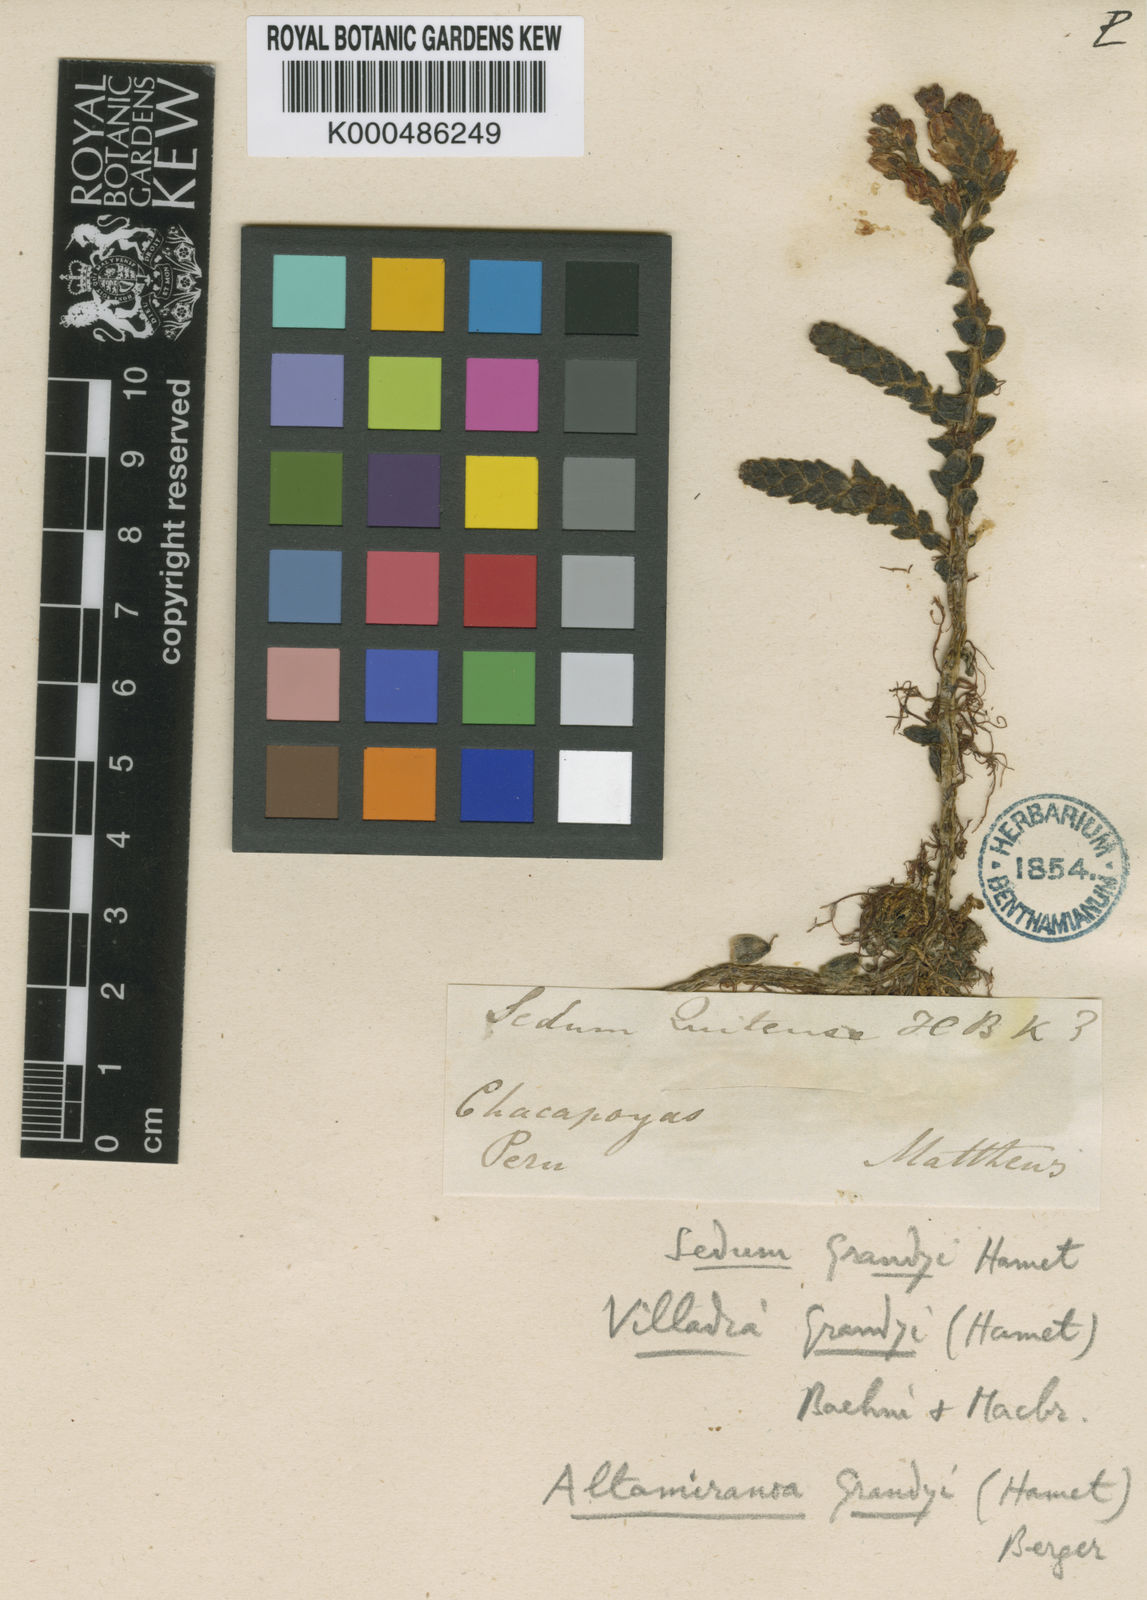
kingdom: Plantae
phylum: Tracheophyta
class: Magnoliopsida
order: Saxifragales
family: Crassulaceae
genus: Sedum
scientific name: Sedum grandyi
